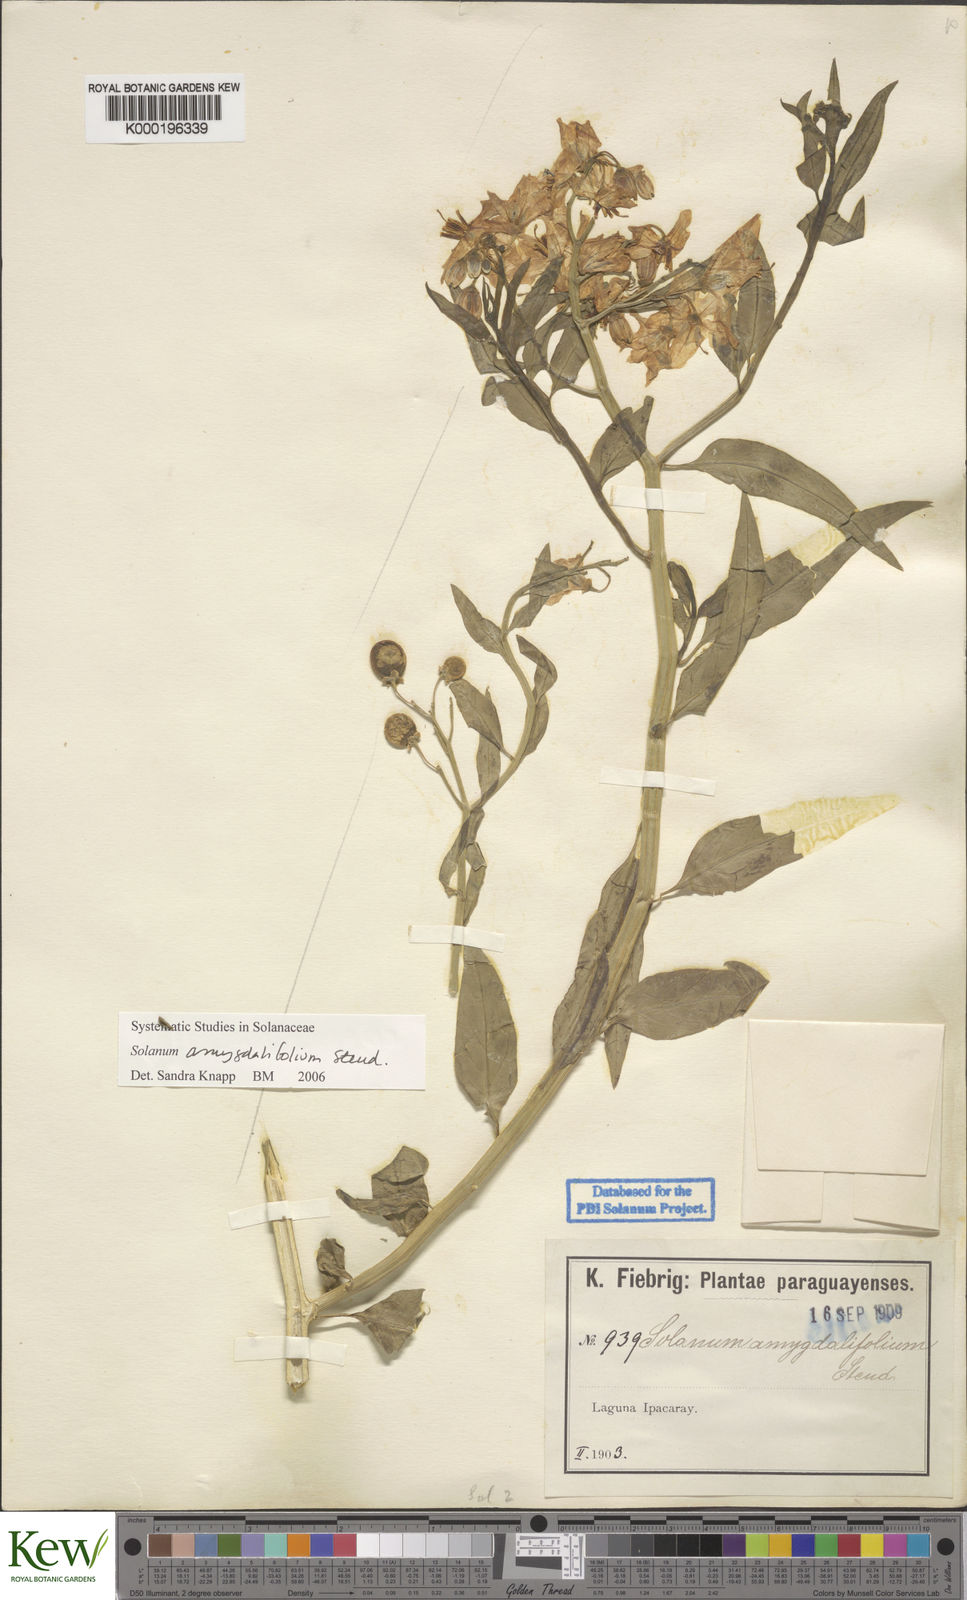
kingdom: Plantae
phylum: Tracheophyta
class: Magnoliopsida
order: Solanales
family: Solanaceae
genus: Solanum
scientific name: Solanum amygdalifolium
